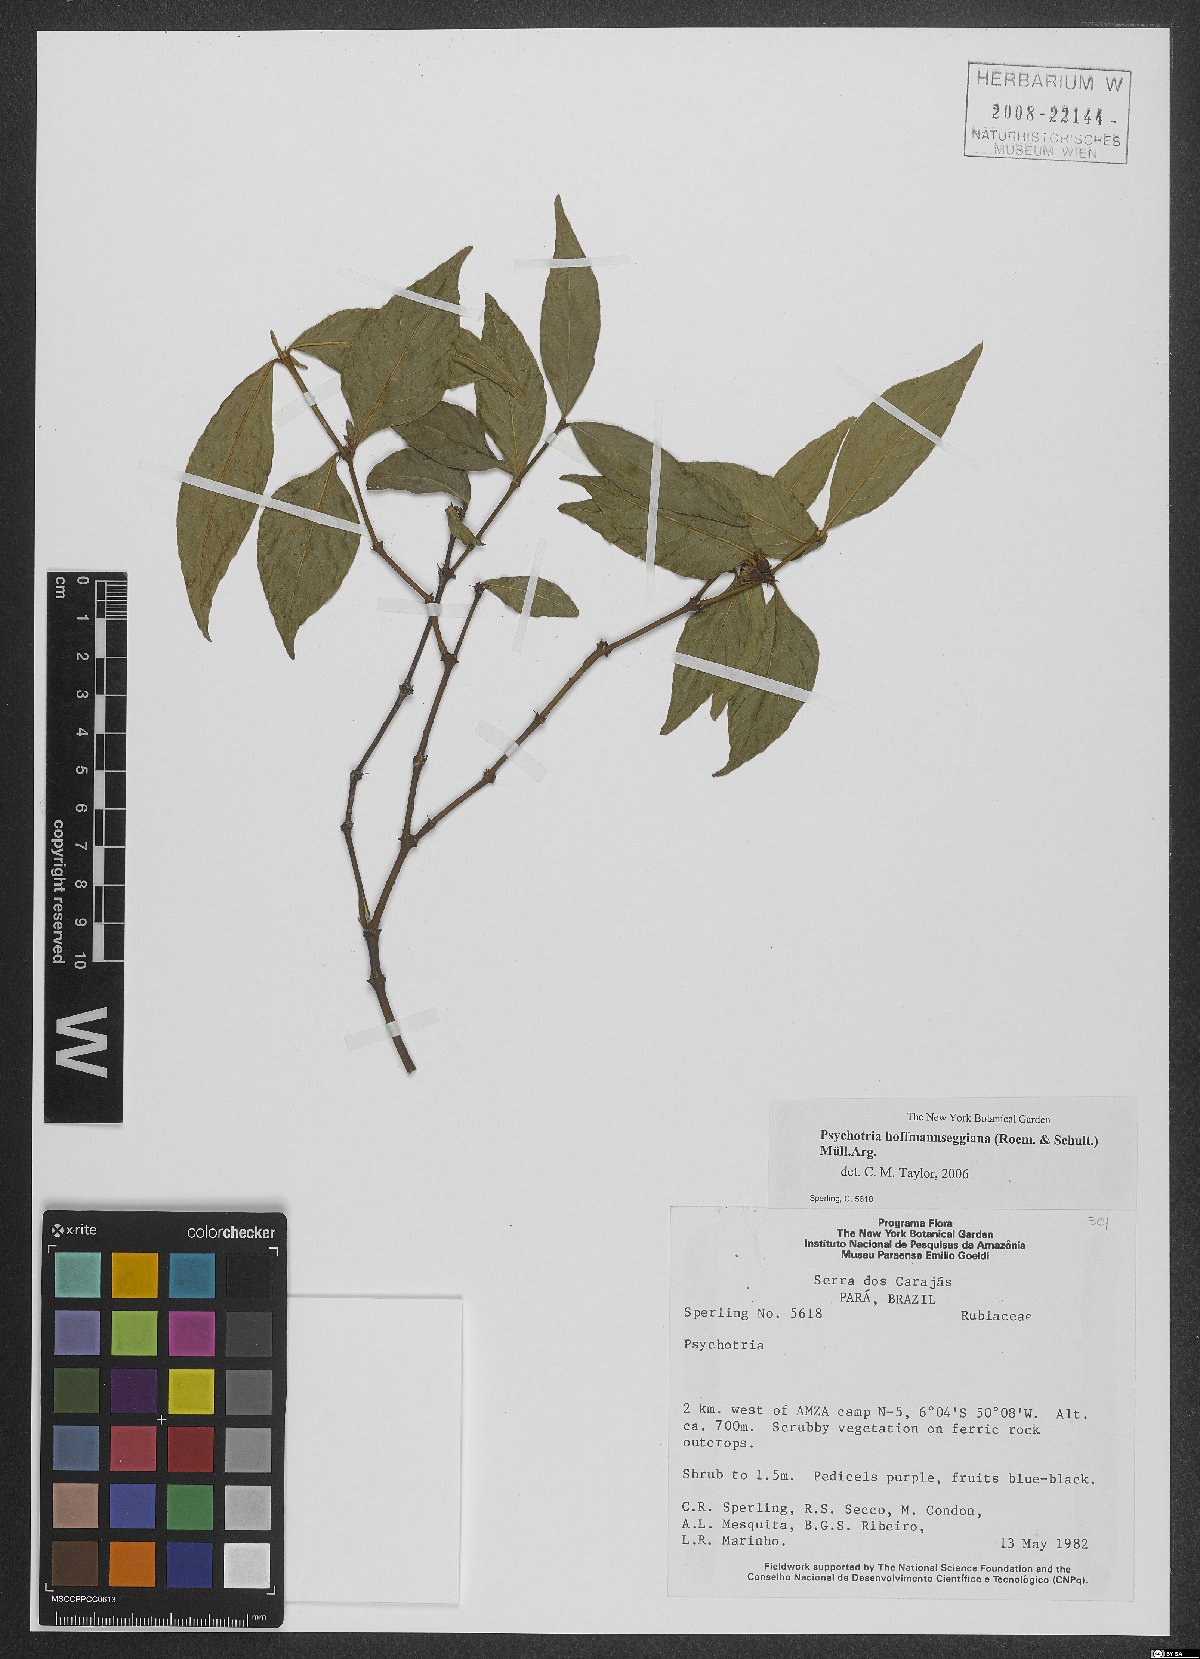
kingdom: Plantae
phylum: Tracheophyta
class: Magnoliopsida
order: Gentianales
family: Rubiaceae
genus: Palicourea
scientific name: Palicourea hoffmannseggiana
